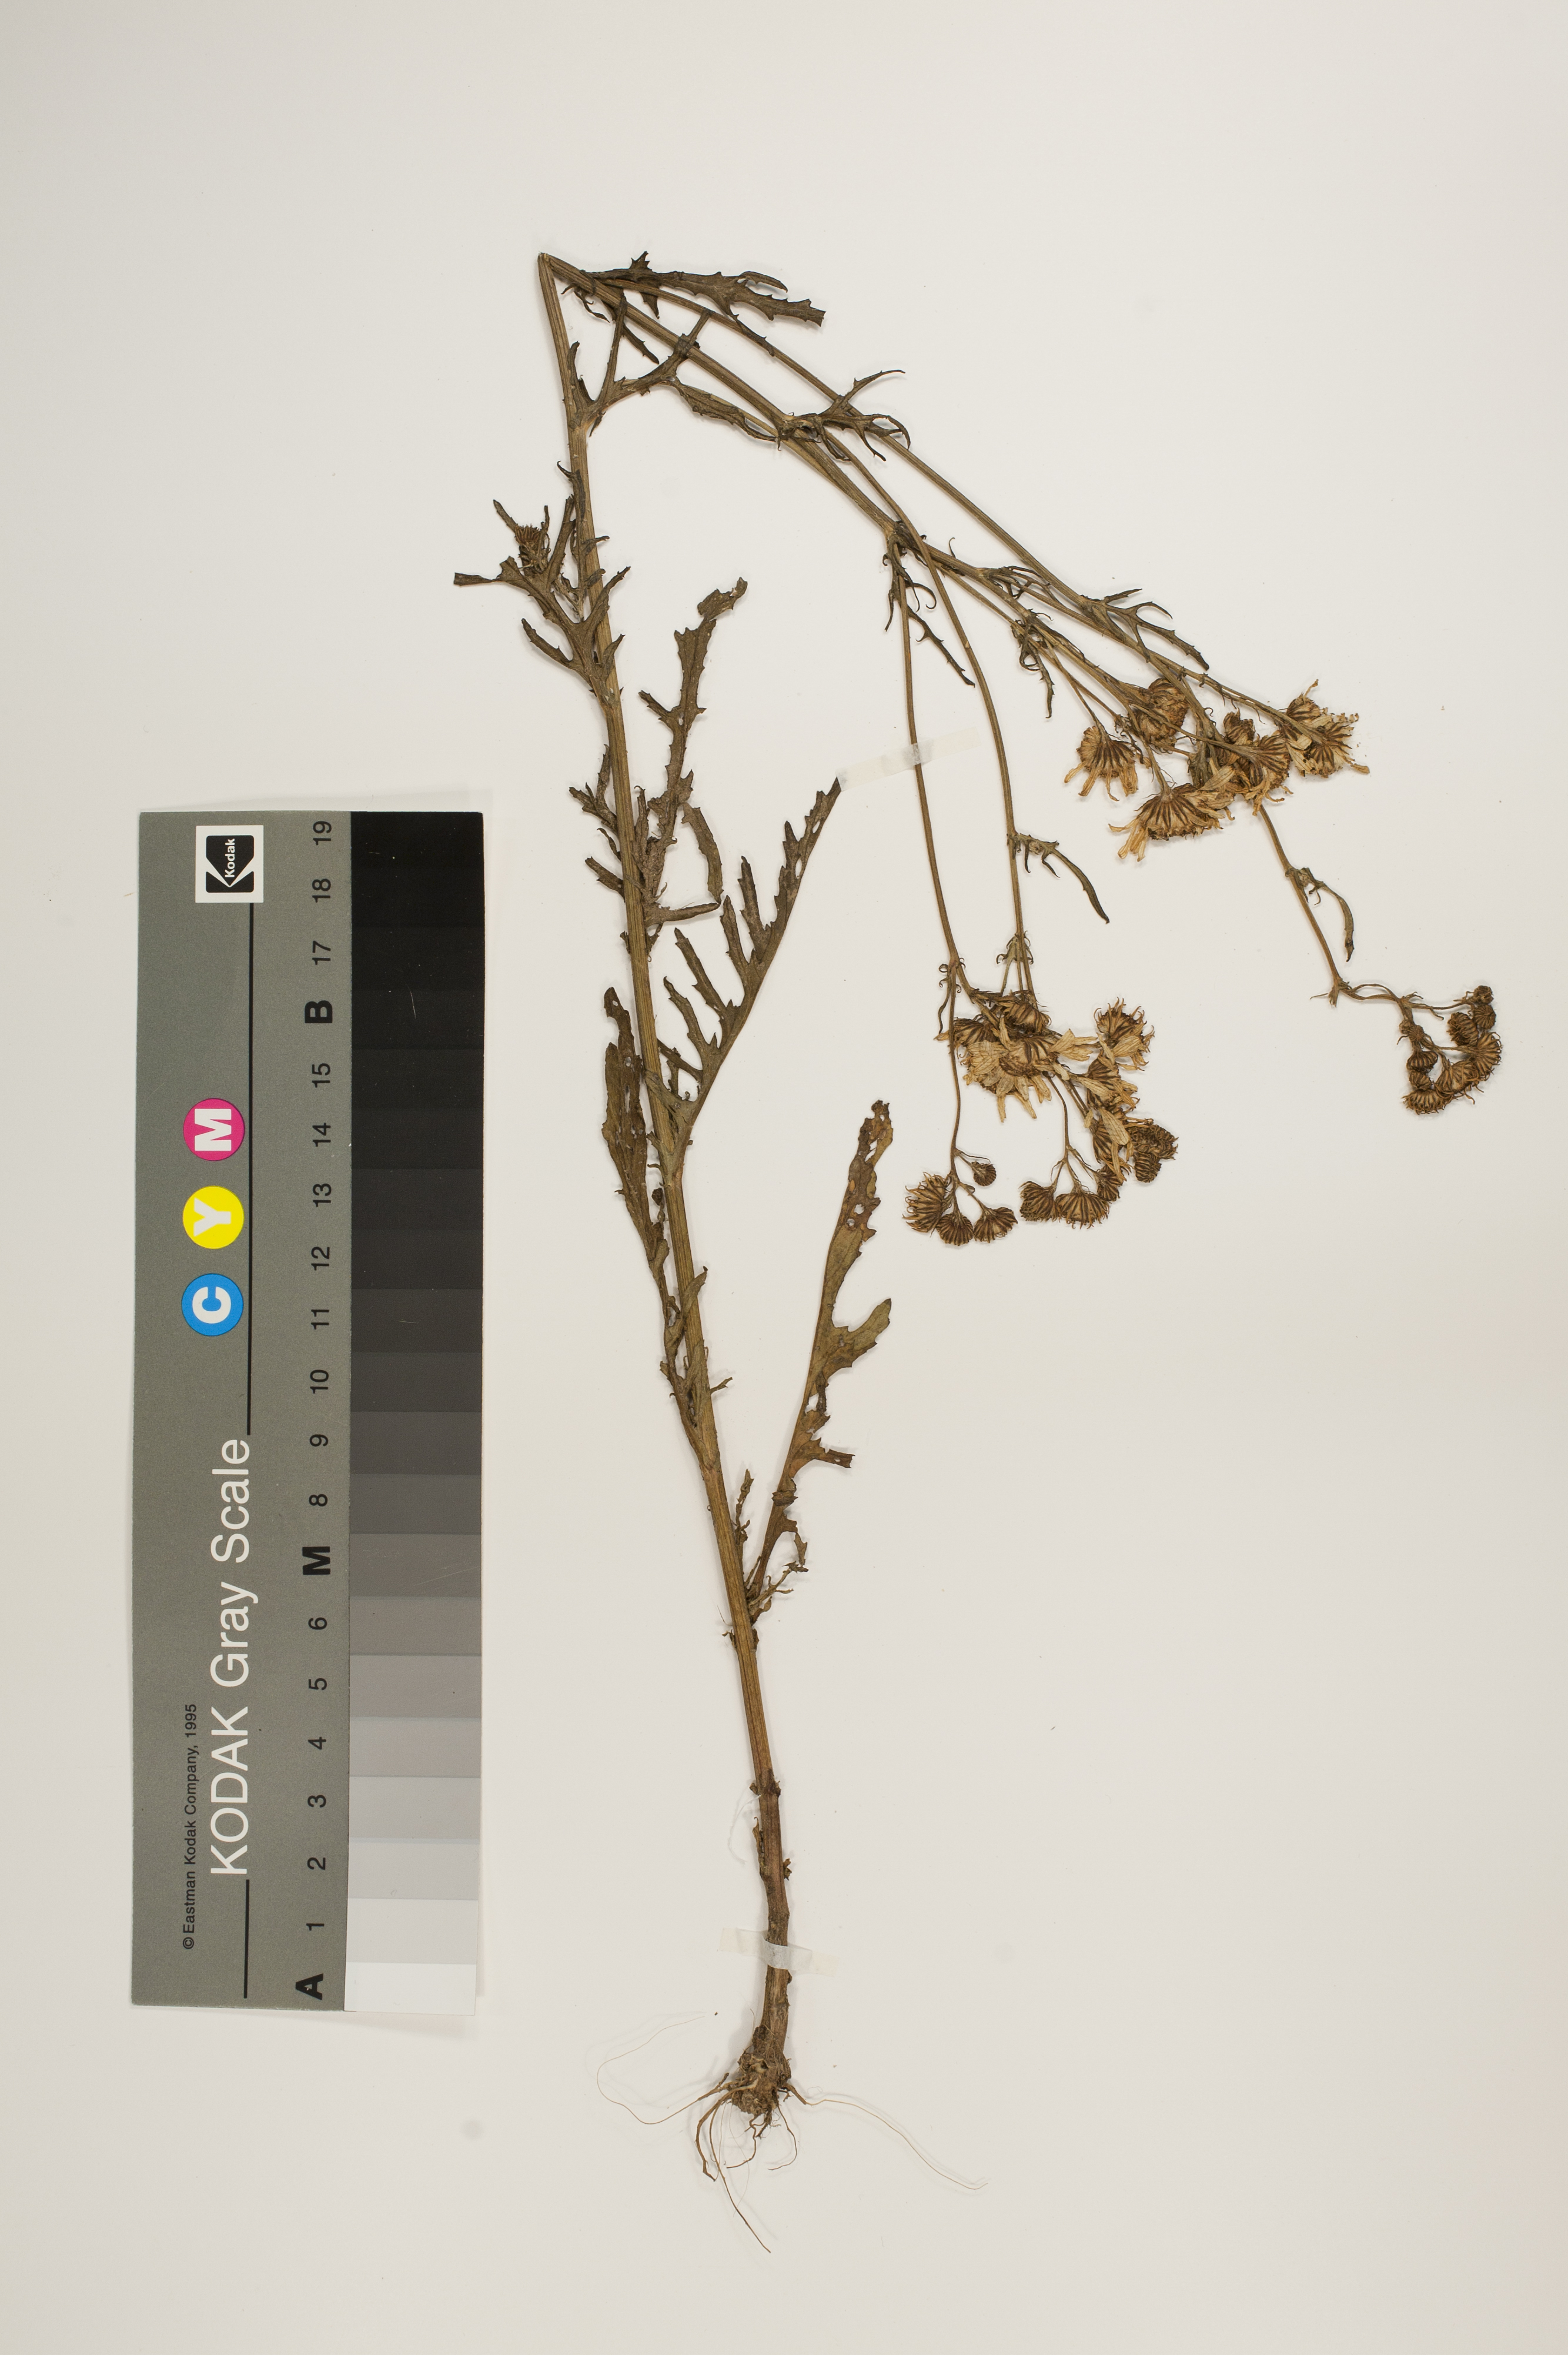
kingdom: Plantae
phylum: Tracheophyta
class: Magnoliopsida
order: Asterales
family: Asteraceae
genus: Jacobaea
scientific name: Jacobaea aquatica
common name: Water ragwort
